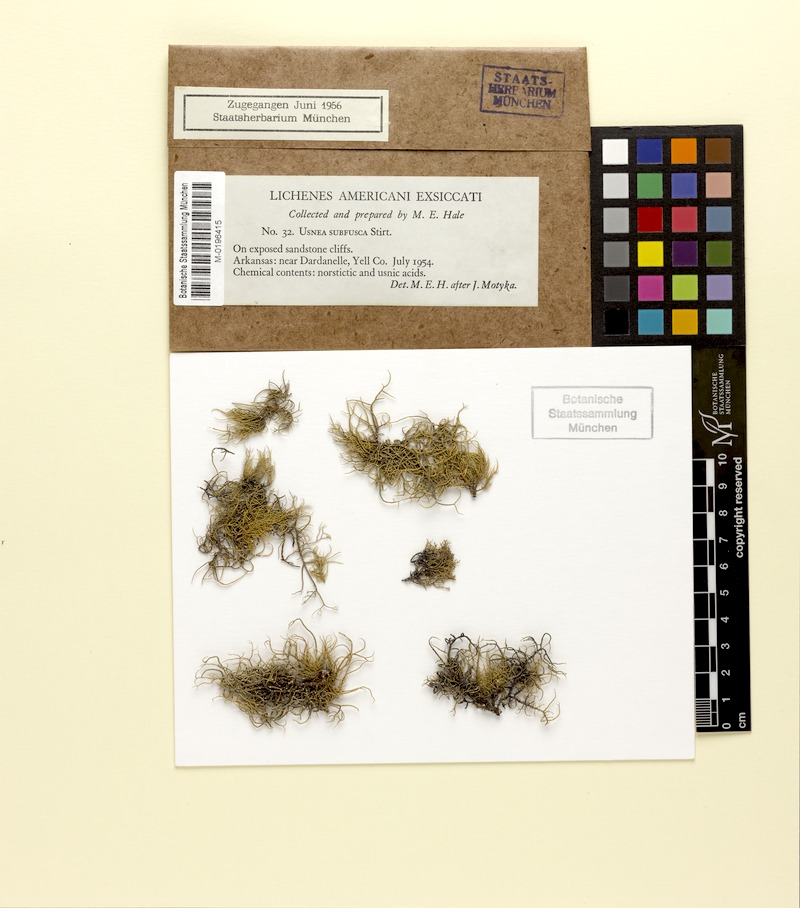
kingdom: Fungi
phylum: Ascomycota
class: Lecanoromycetes
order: Lecanorales
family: Parmeliaceae
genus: Usnea
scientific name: Usnea subfusca
